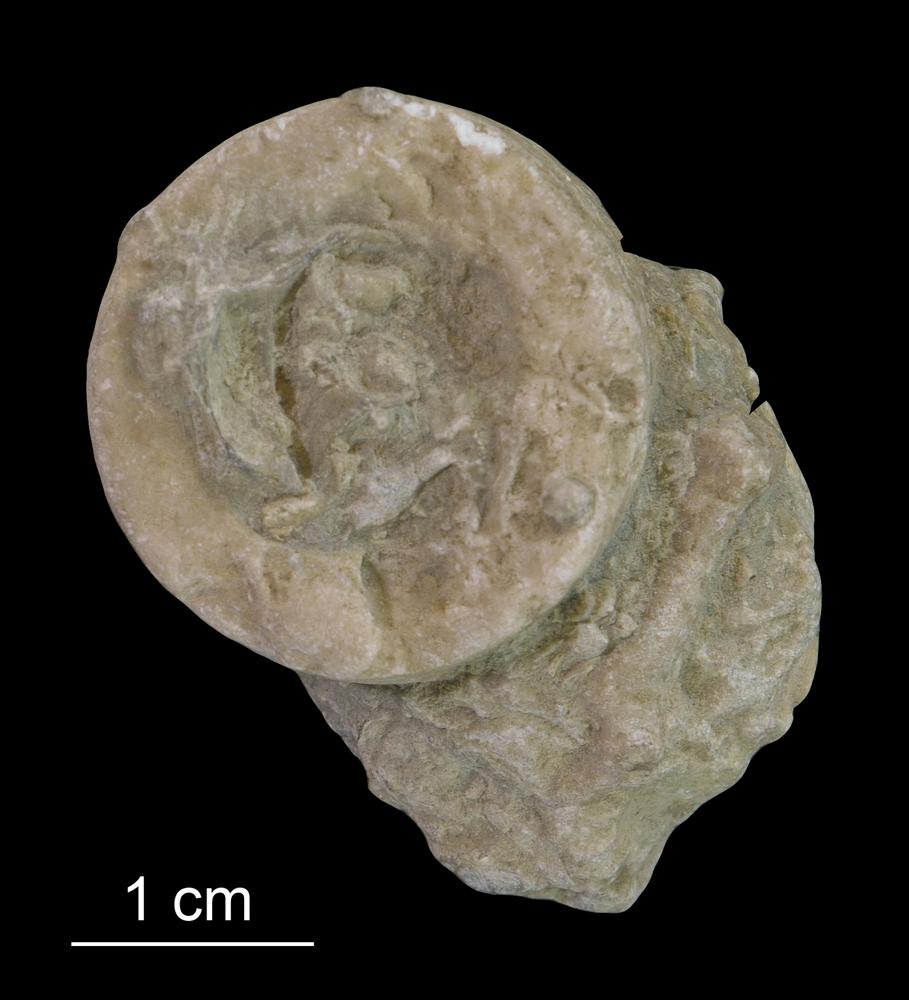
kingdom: Animalia
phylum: Echinodermata
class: Crinoidea
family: Crotalocrinitidae
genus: Crotalocrinus
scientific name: Crotalocrinus
